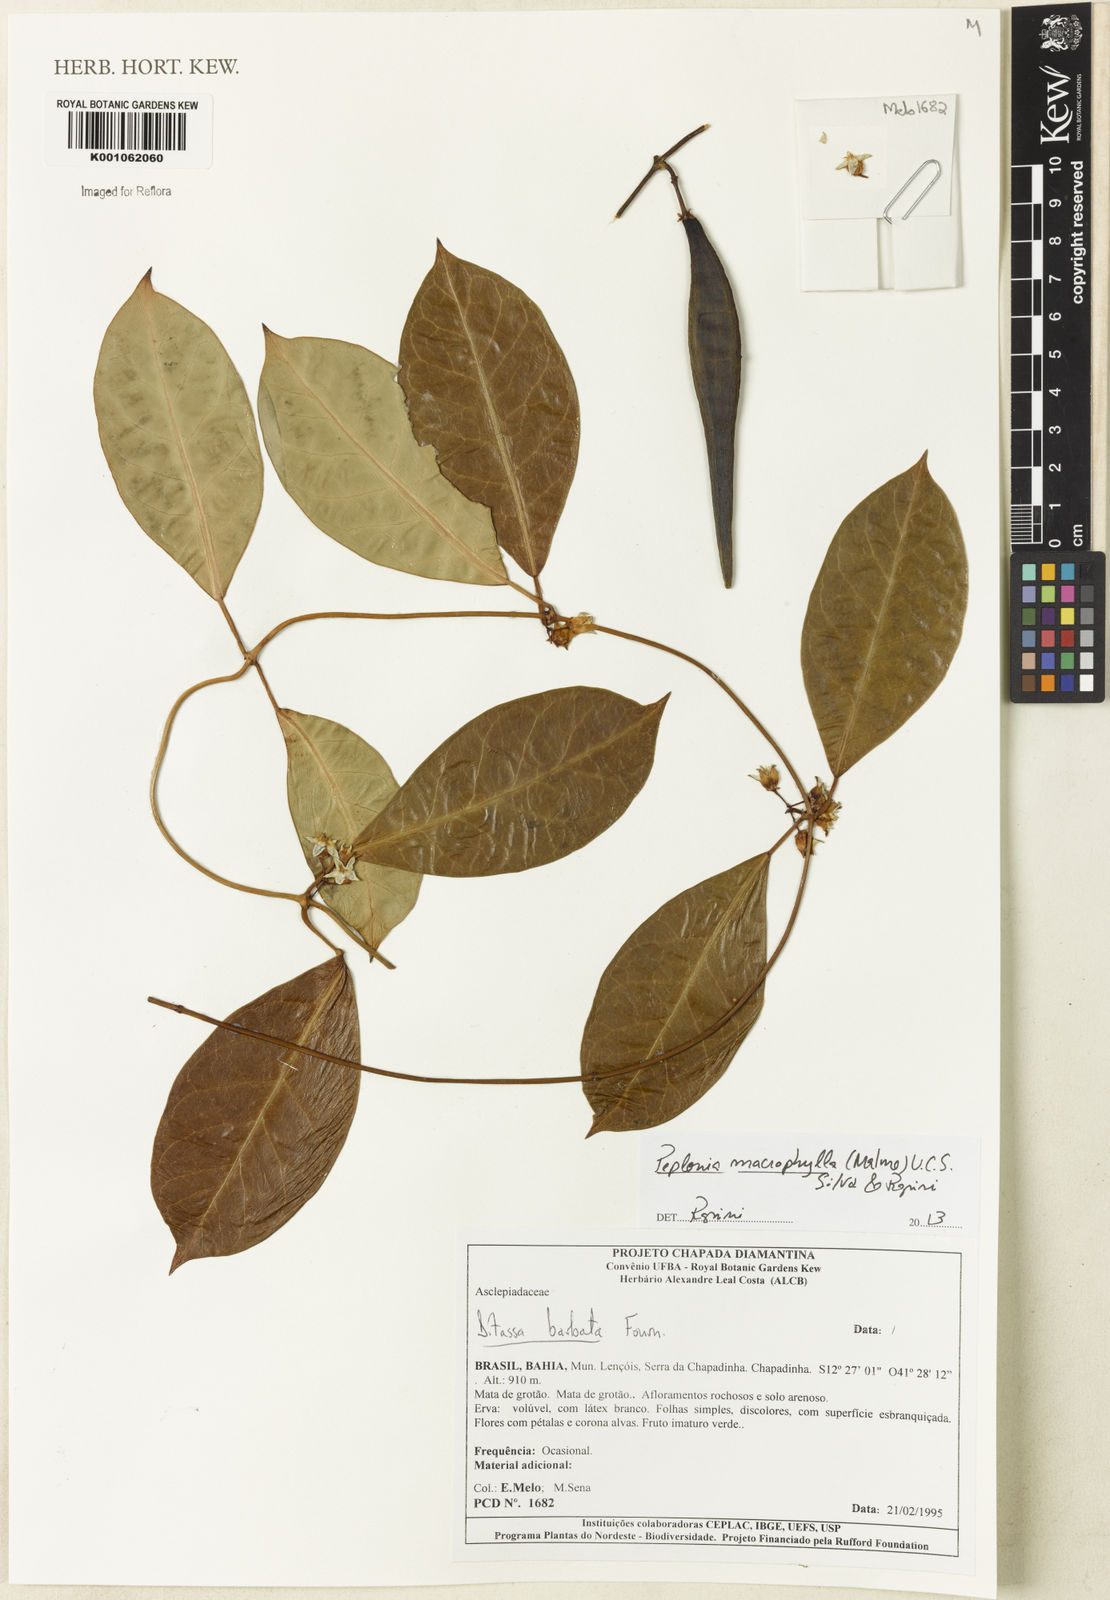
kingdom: Plantae
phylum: Tracheophyta
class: Magnoliopsida
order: Gentianales
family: Apocynaceae
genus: Peplonia
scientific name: Peplonia macrophylla
